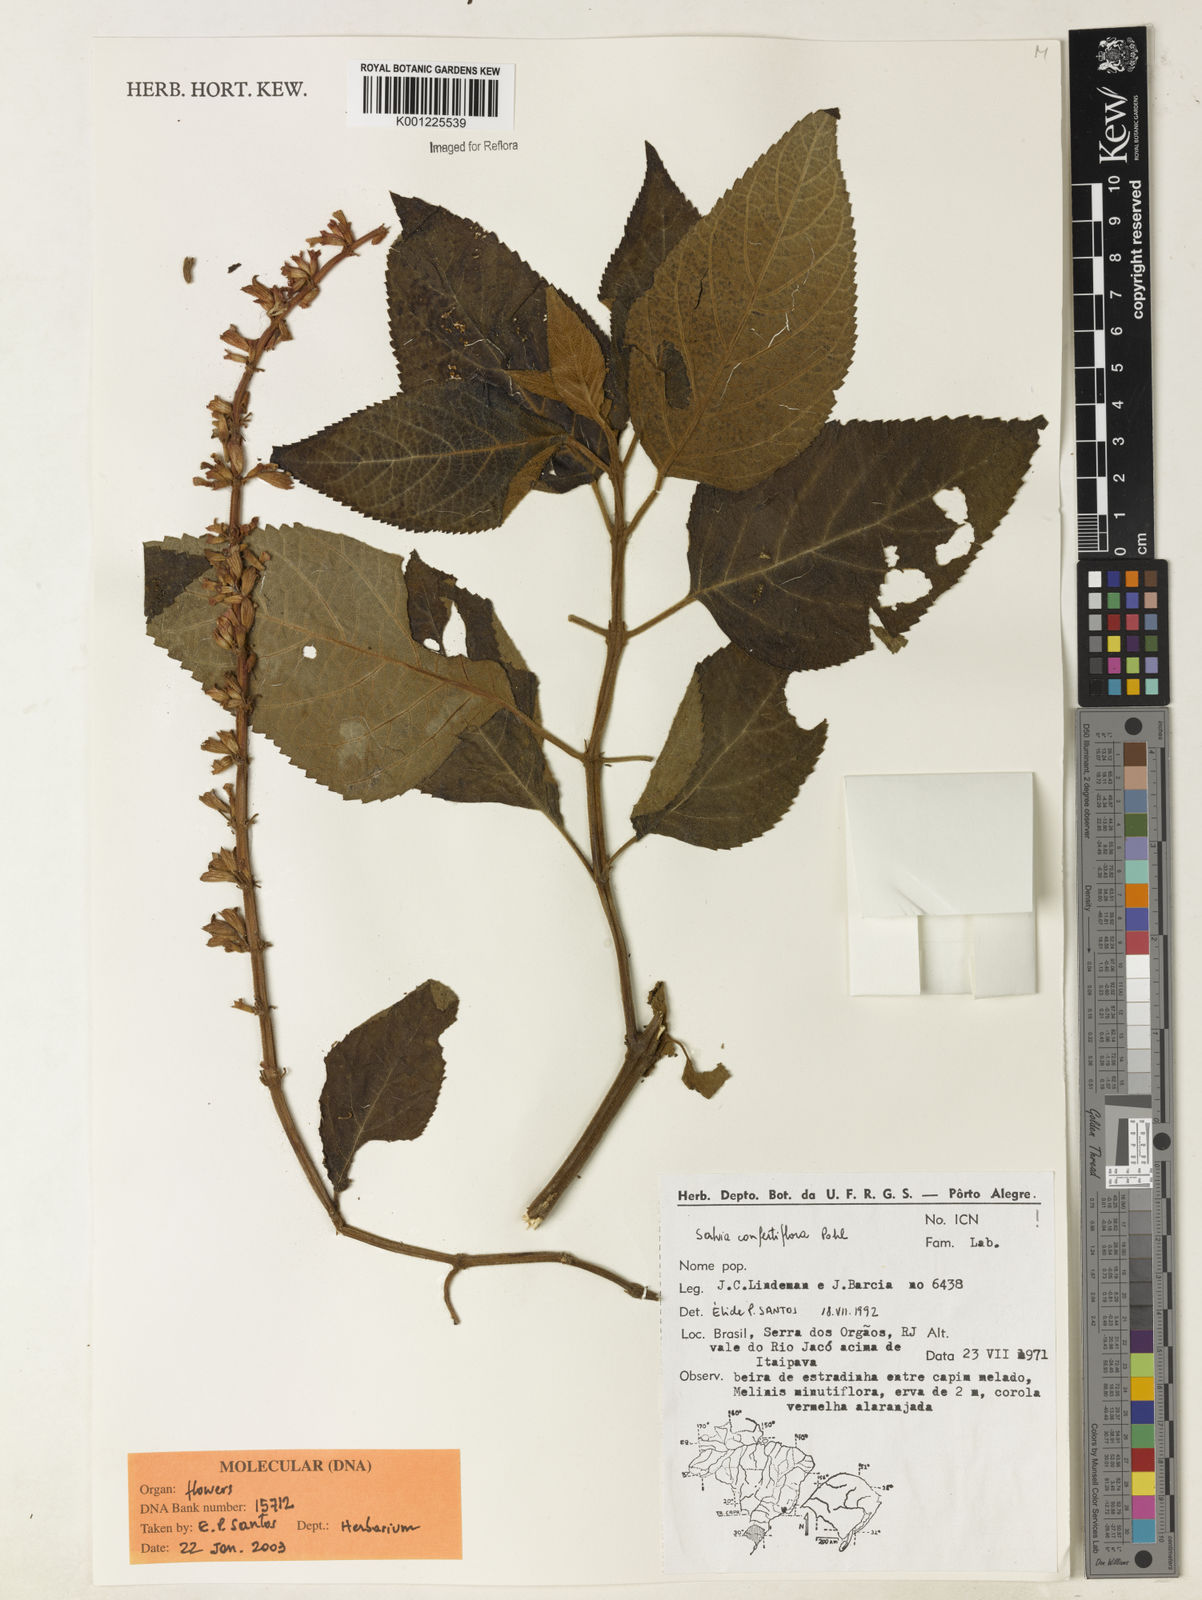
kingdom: Plantae
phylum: Tracheophyta
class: Magnoliopsida
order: Lamiales
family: Lamiaceae
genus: Salvia
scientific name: Salvia confertiflora
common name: Sabra-spike sage
